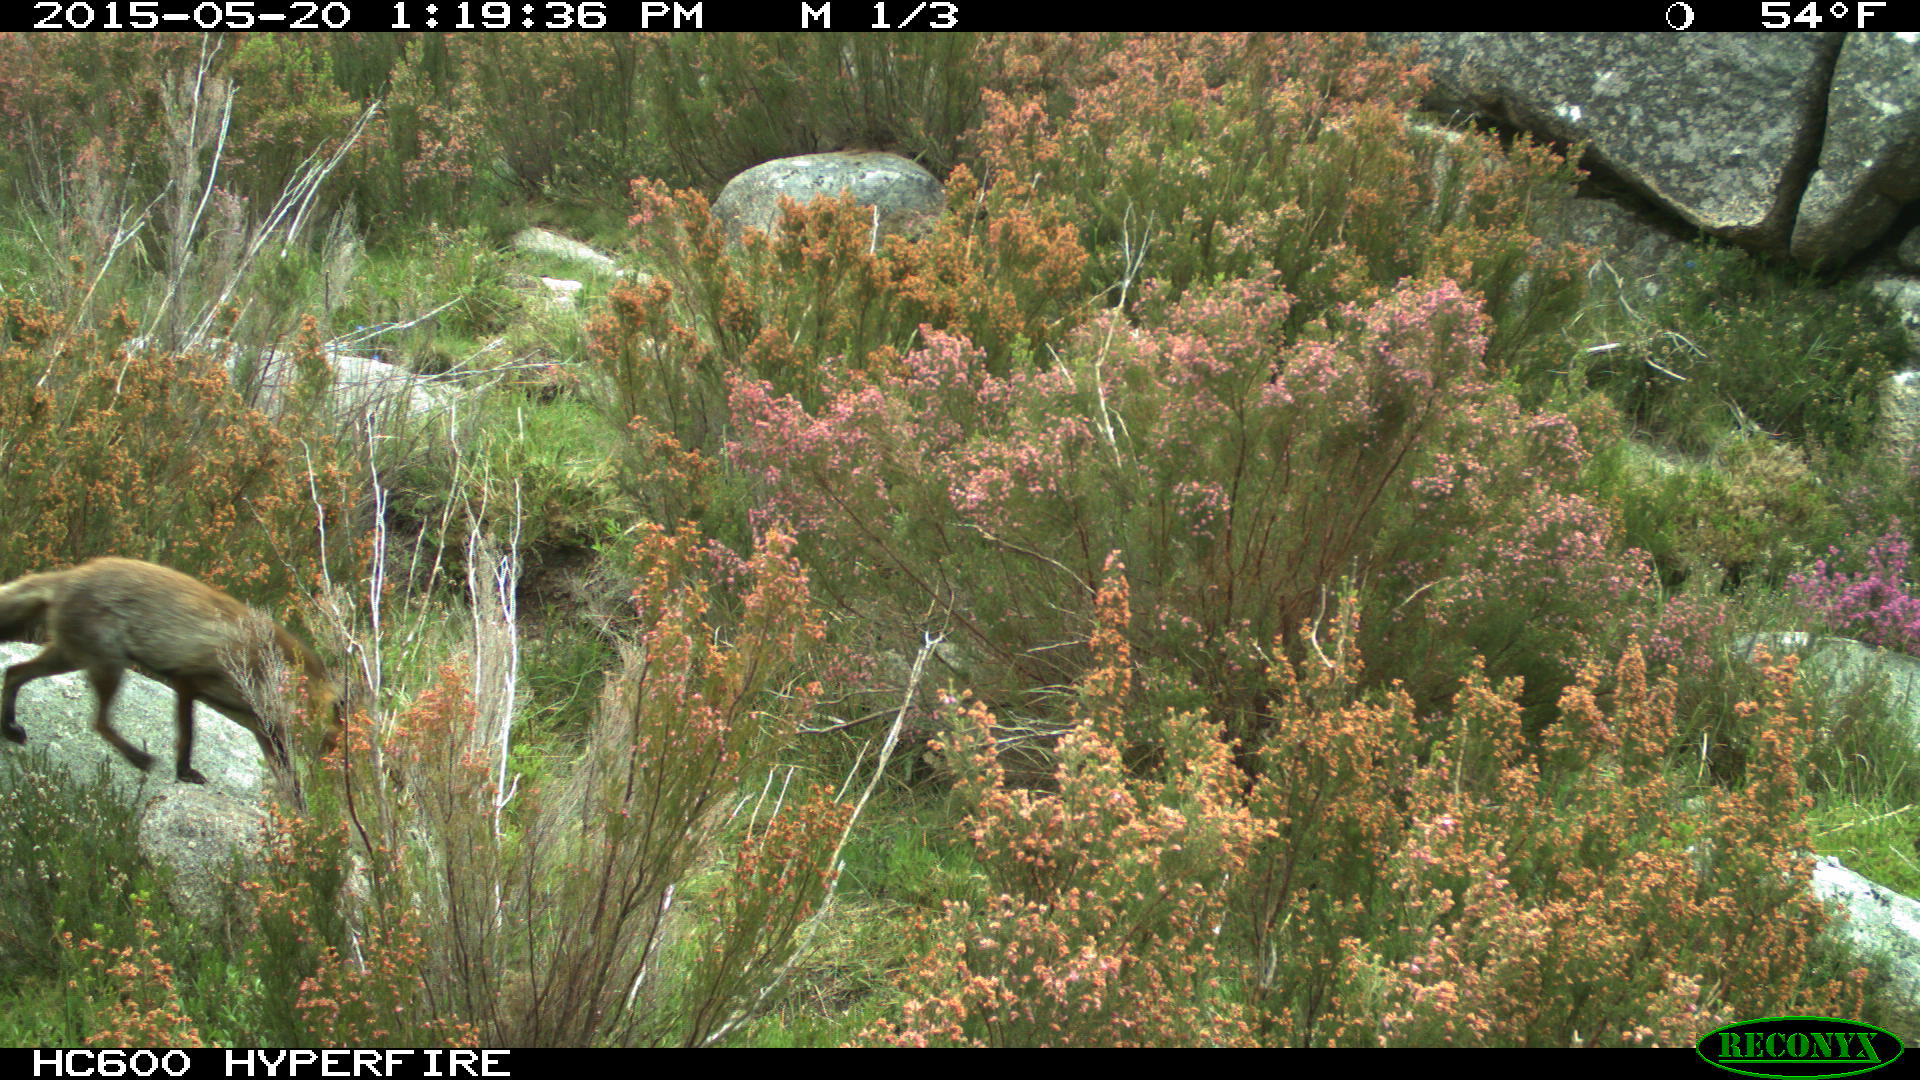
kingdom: Animalia
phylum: Chordata
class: Mammalia
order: Carnivora
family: Canidae
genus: Vulpes
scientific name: Vulpes vulpes
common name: Red fox
